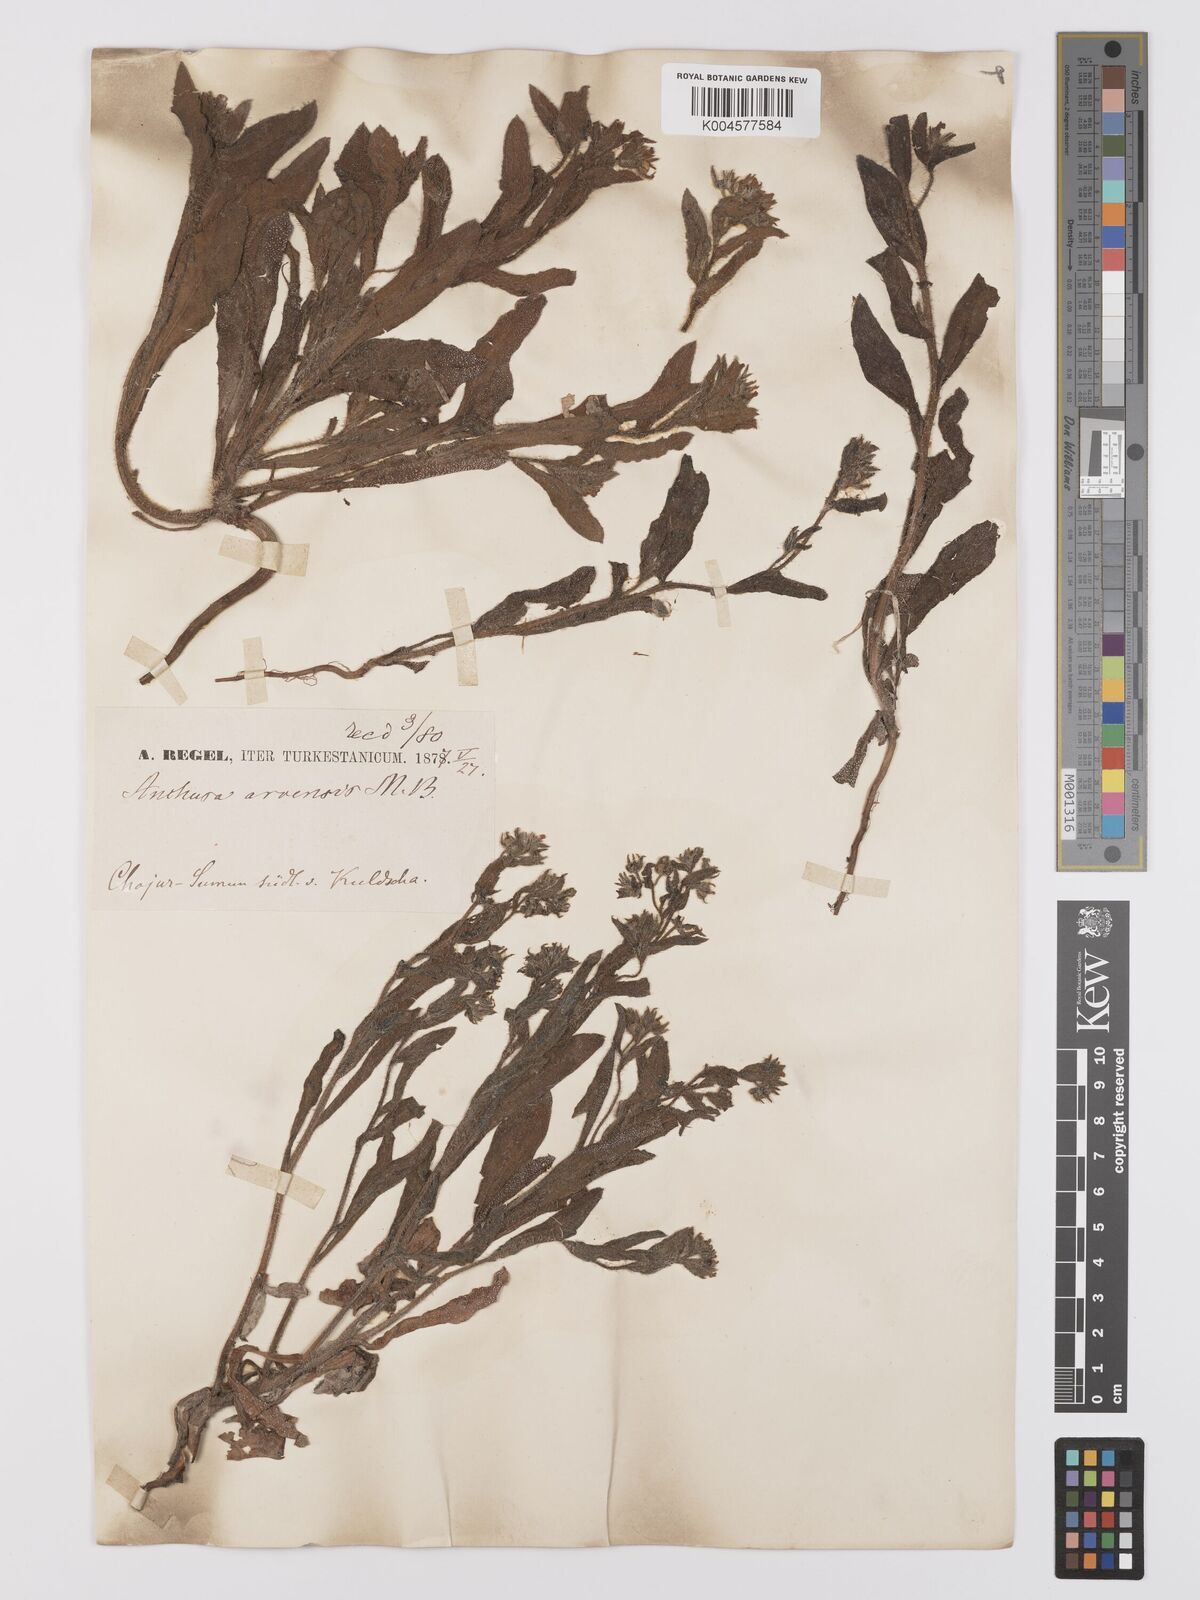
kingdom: Plantae
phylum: Tracheophyta
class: Magnoliopsida
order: Boraginales
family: Boraginaceae
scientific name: Boraginaceae
